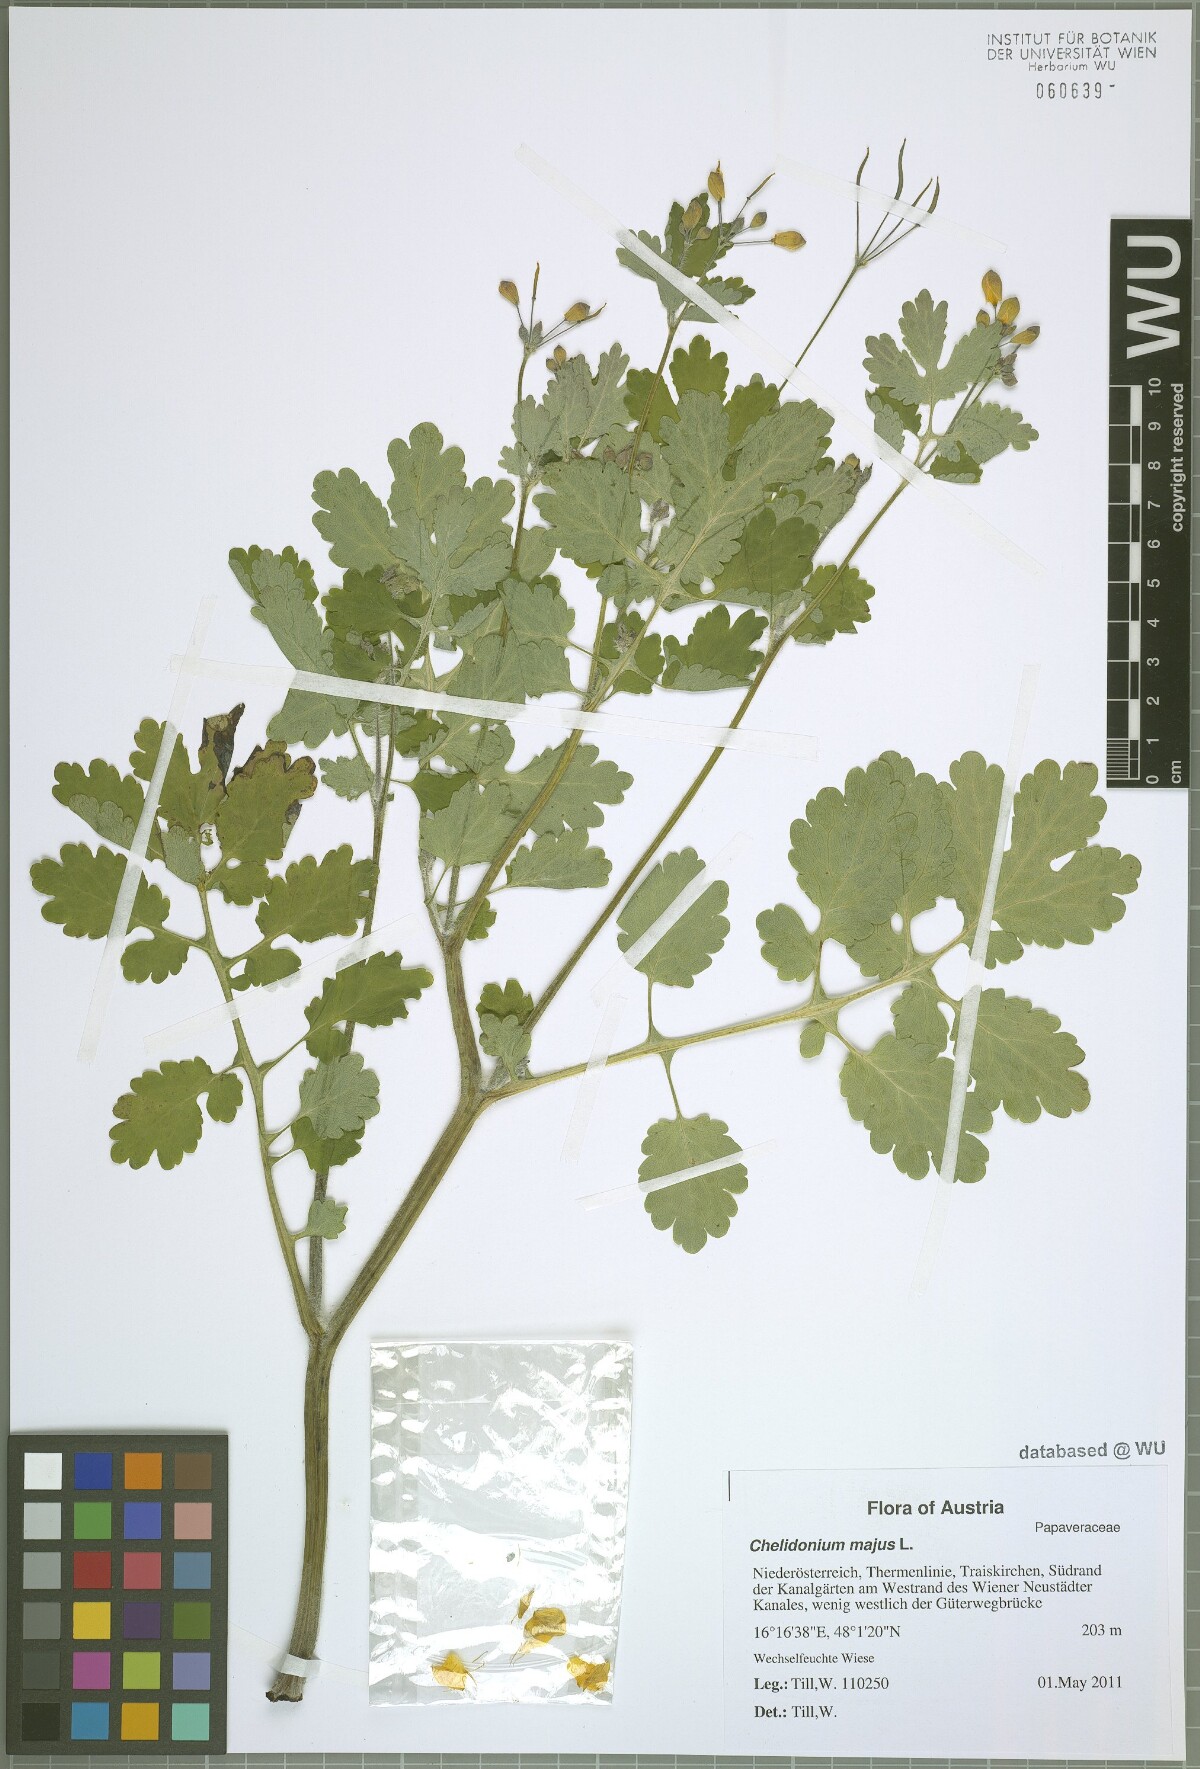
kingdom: Plantae
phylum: Tracheophyta
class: Magnoliopsida
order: Ranunculales
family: Papaveraceae
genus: Chelidonium
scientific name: Chelidonium majus
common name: Greater celandine
